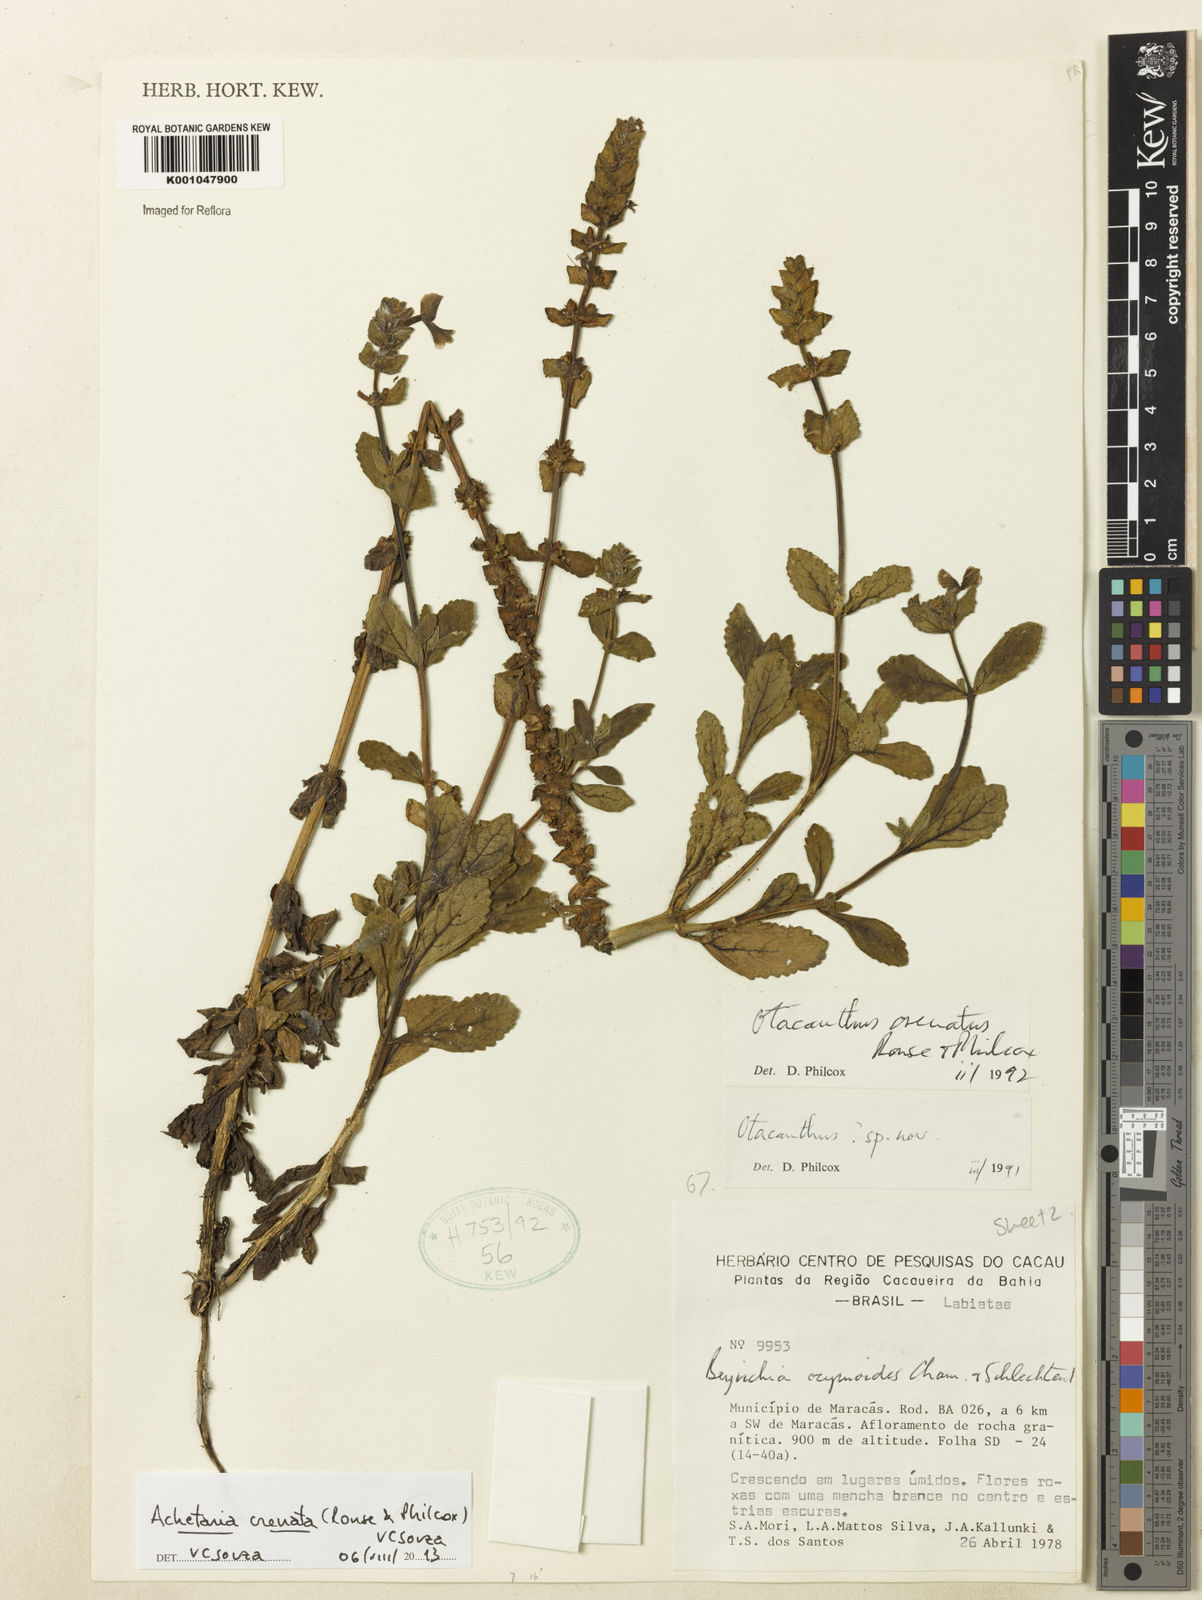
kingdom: Plantae
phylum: Tracheophyta
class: Magnoliopsida
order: Lamiales
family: Plantaginaceae
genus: Matourea
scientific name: Matourea crenata
